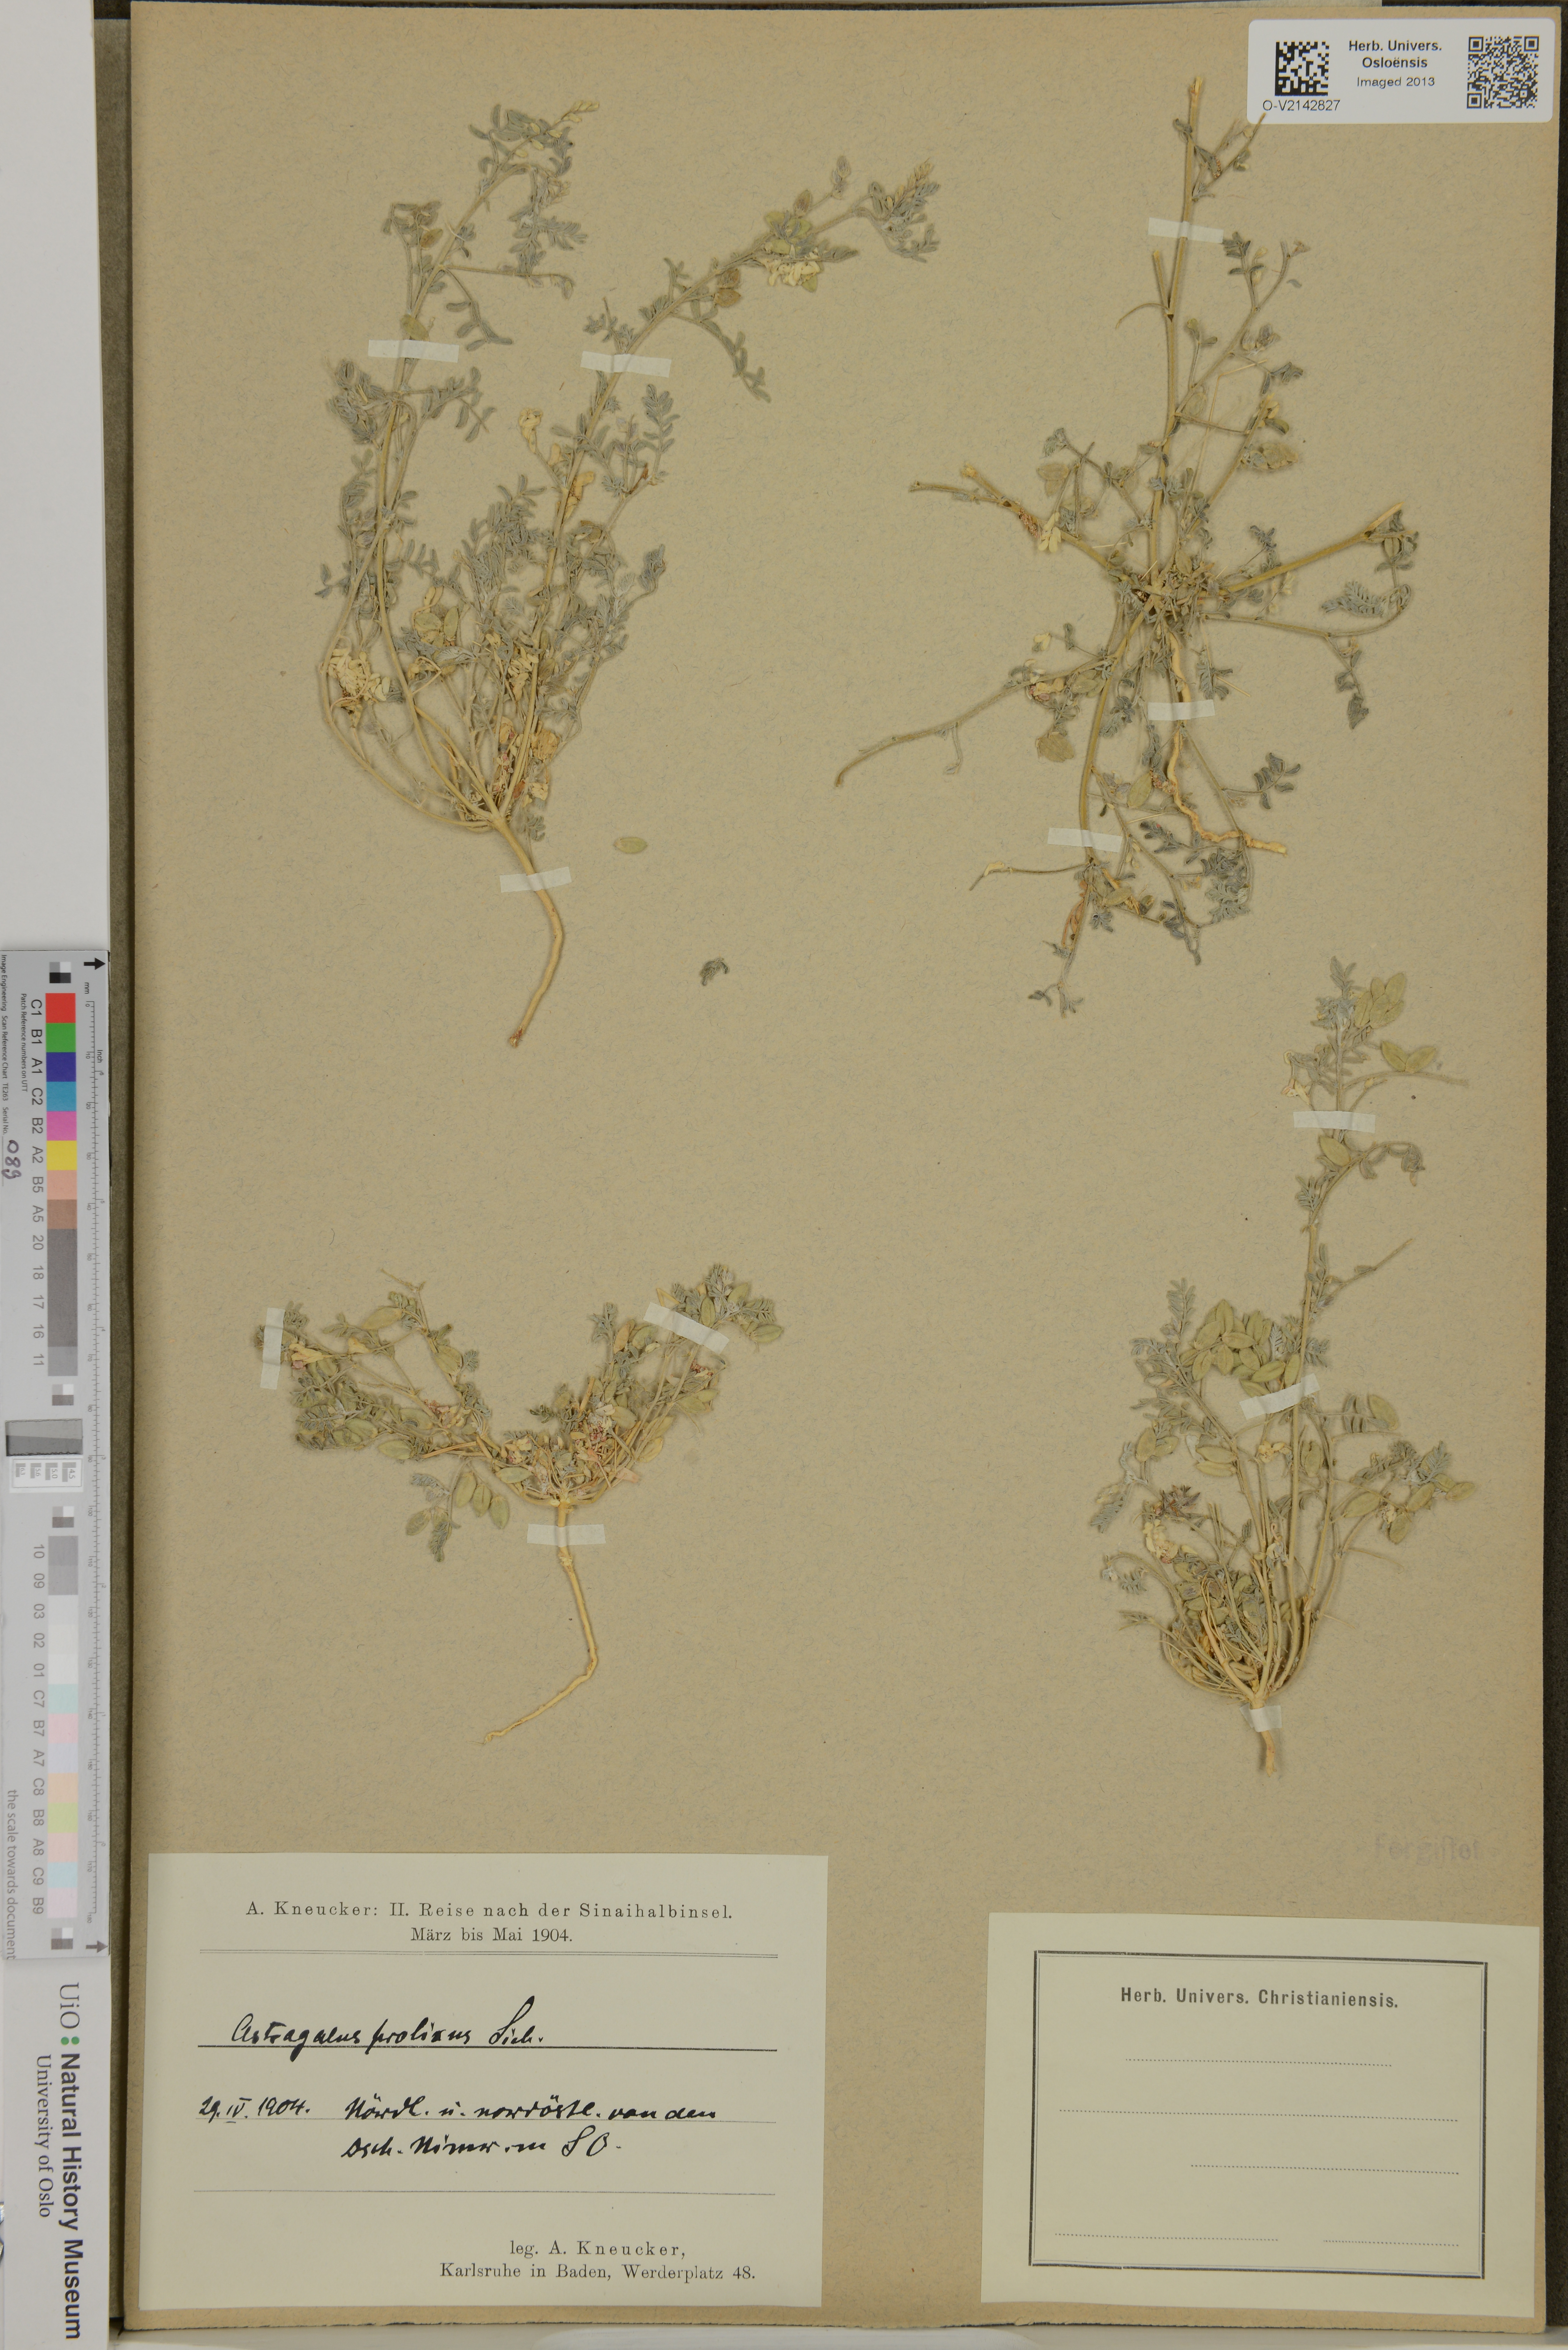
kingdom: Plantae
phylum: Tracheophyta
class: Magnoliopsida
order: Fabales
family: Fabaceae
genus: Astragalus
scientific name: Astragalus vogelii
